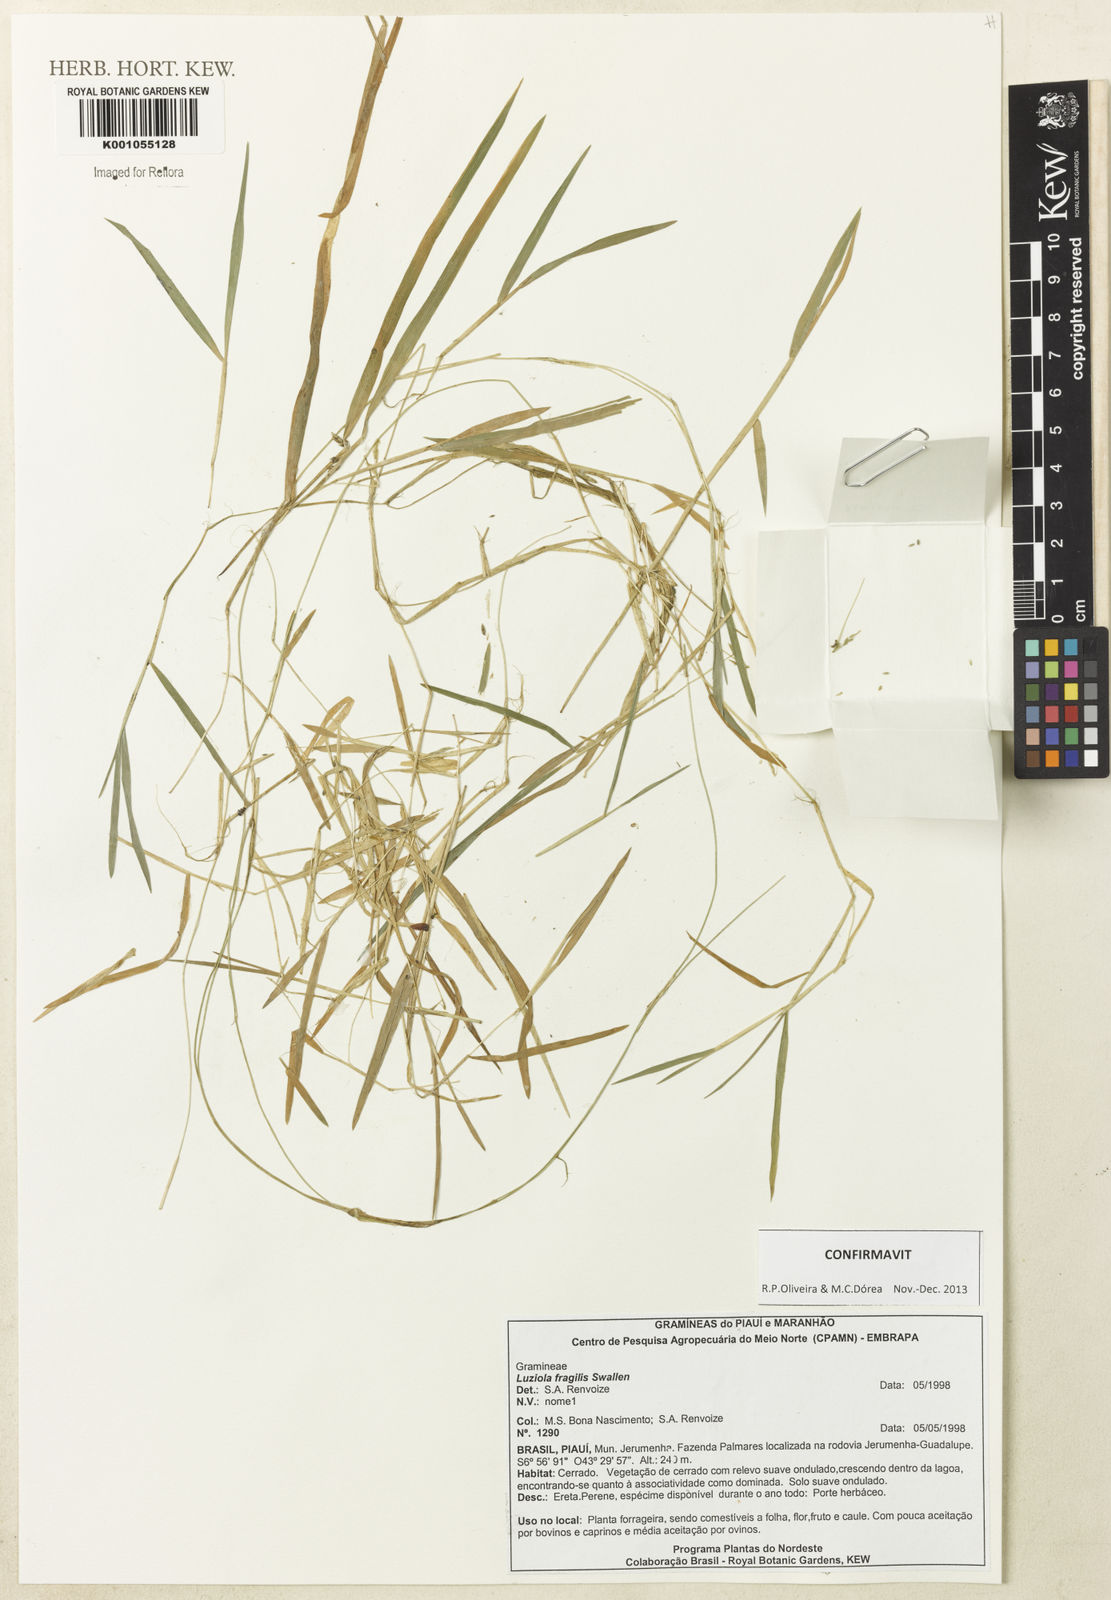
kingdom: Plantae
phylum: Tracheophyta
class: Liliopsida
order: Poales
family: Poaceae
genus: Luziola
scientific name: Luziola fragilis
